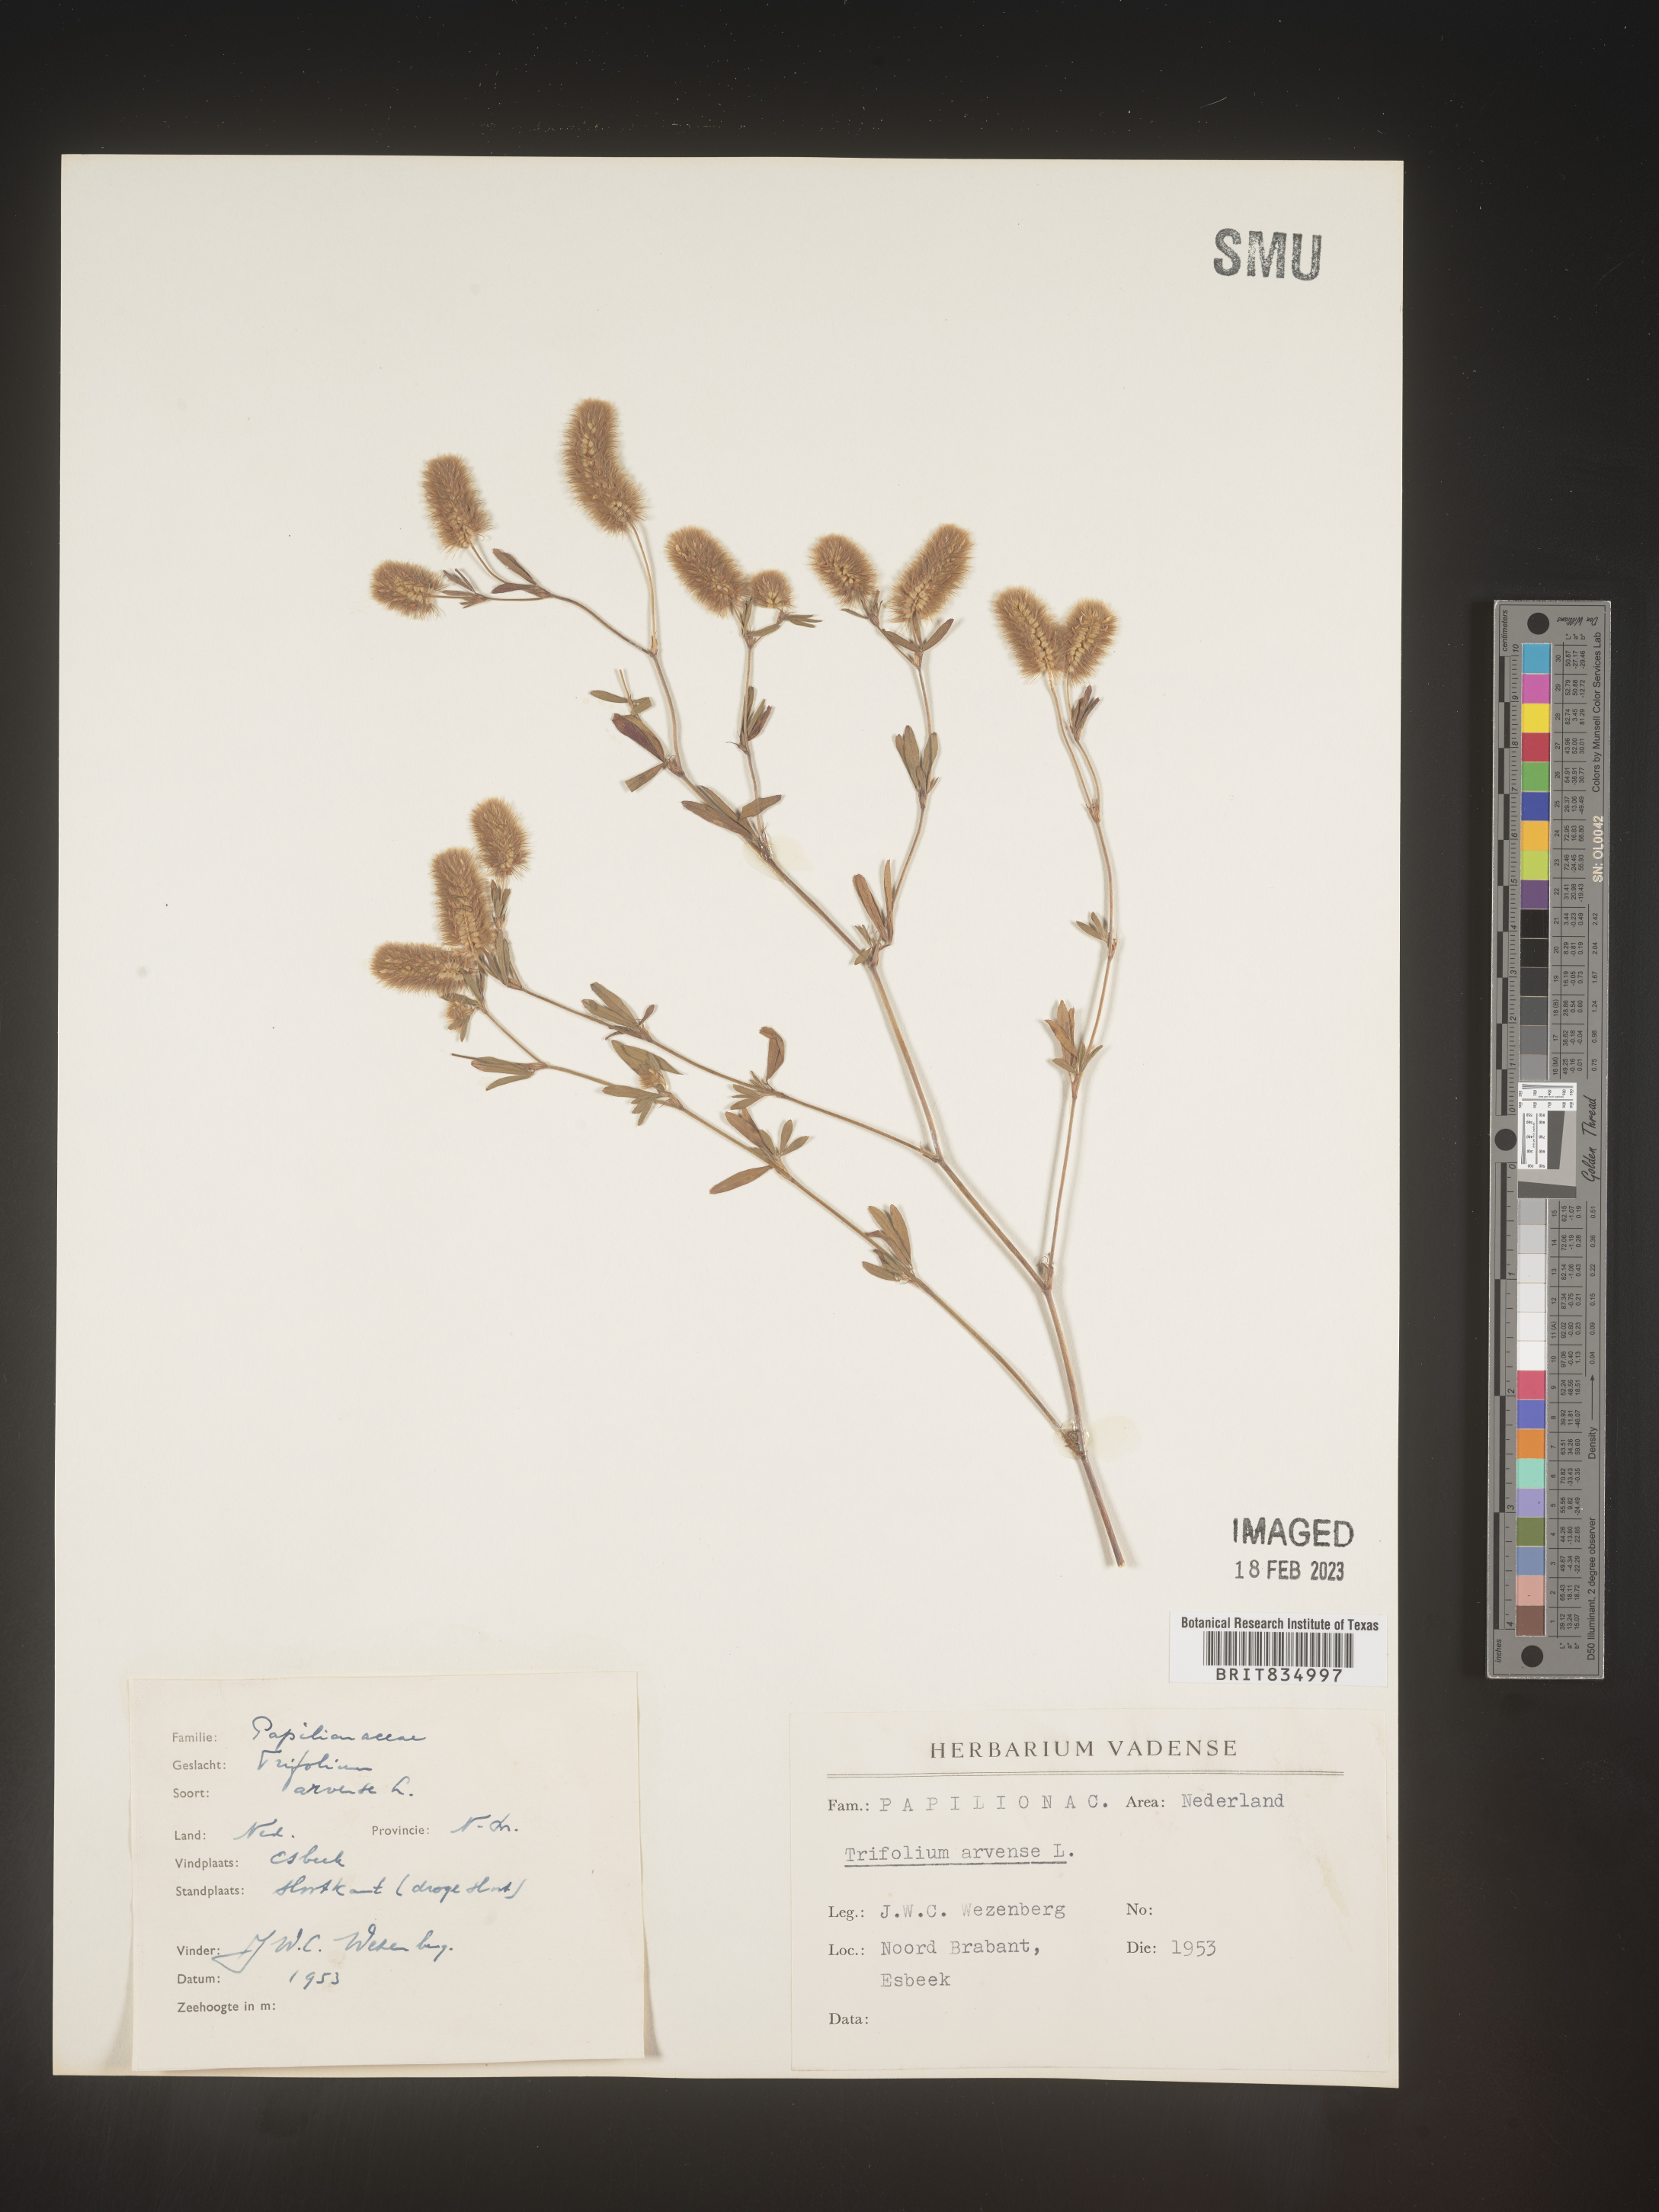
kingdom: Plantae
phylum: Tracheophyta
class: Magnoliopsida
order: Fabales
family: Fabaceae
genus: Trifolium
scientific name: Trifolium
